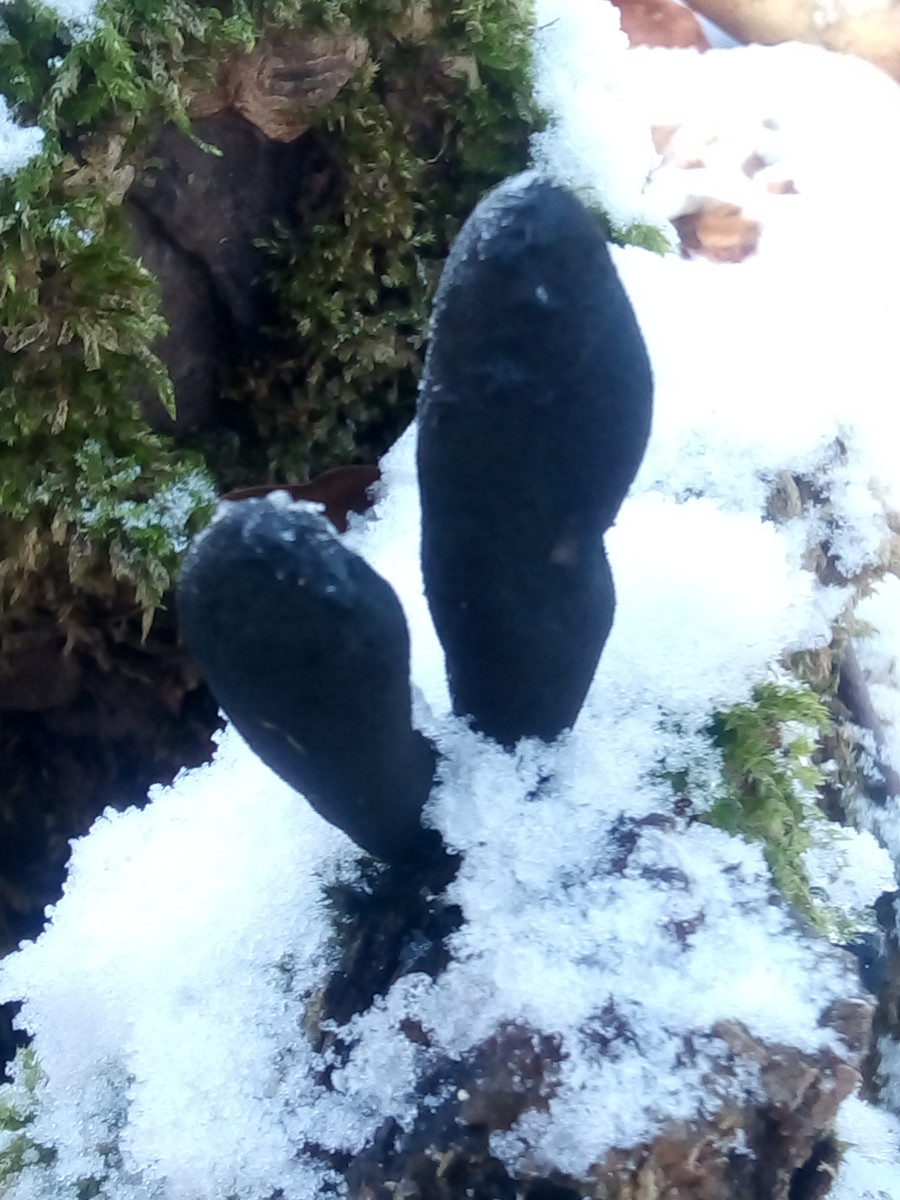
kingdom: Fungi
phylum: Ascomycota
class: Sordariomycetes
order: Xylariales
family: Xylariaceae
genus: Xylaria
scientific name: Xylaria longipes
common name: slank stødsvamp
